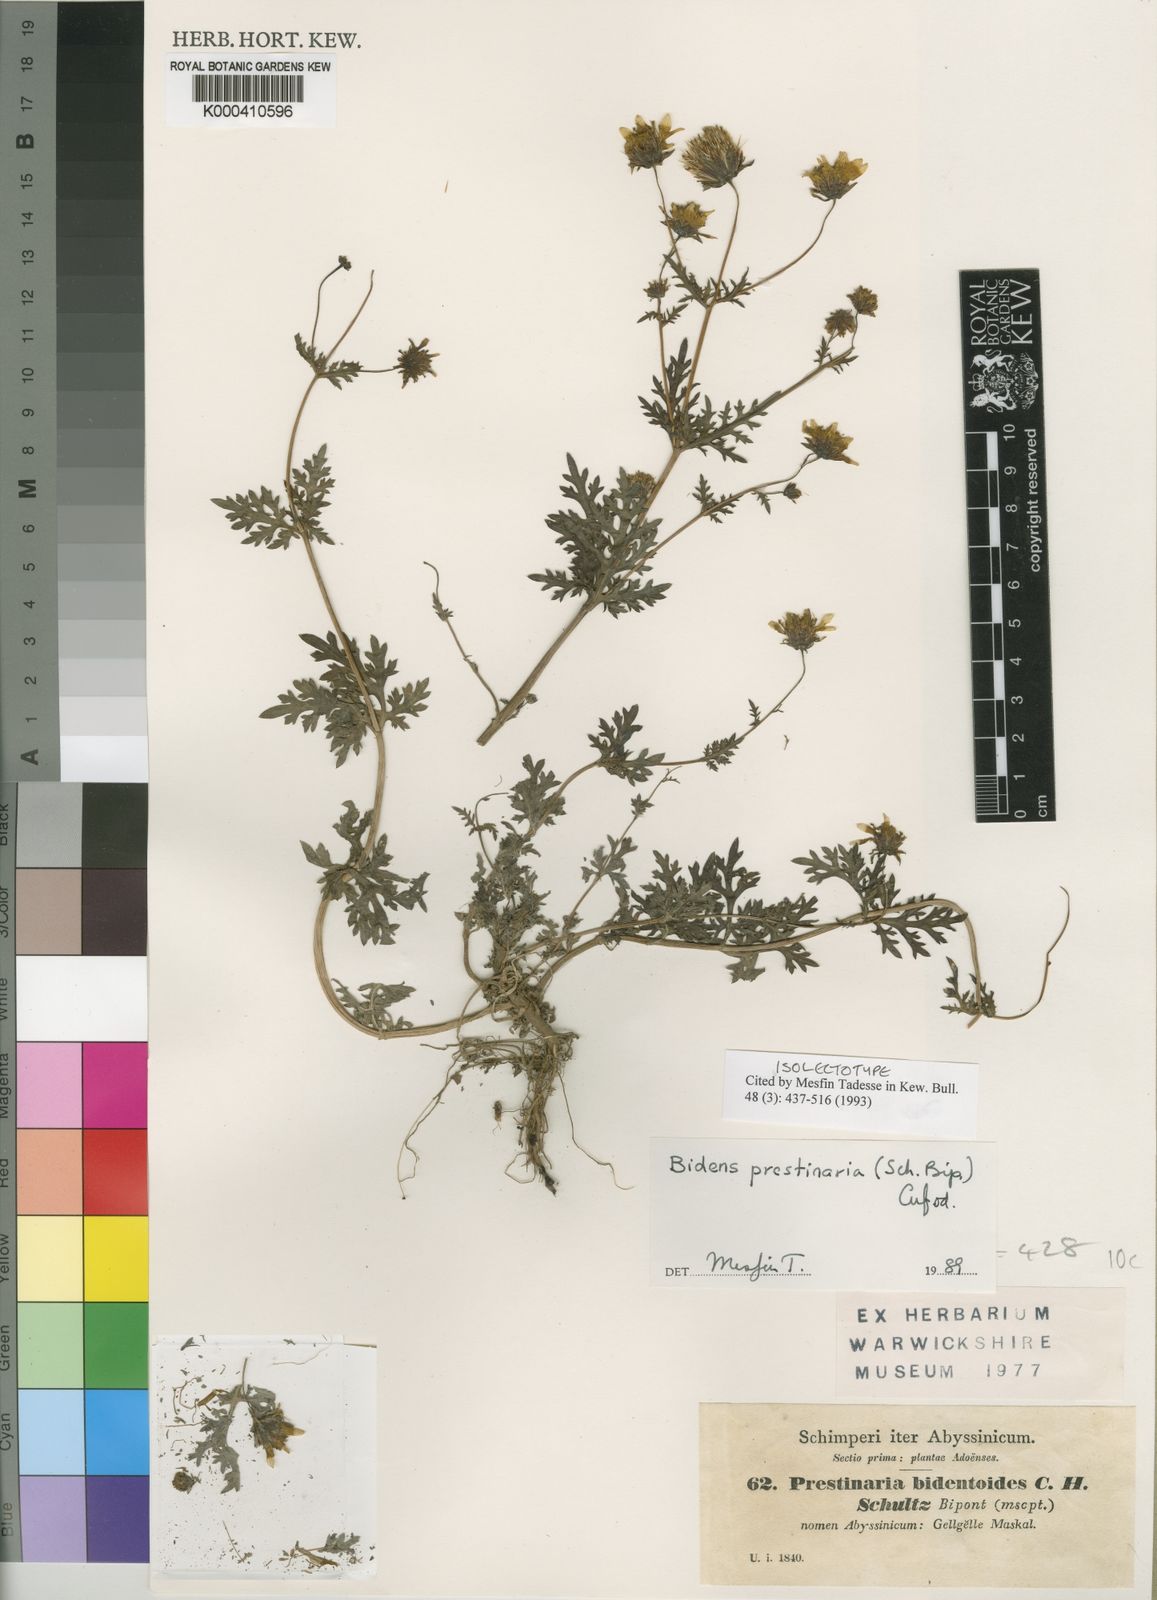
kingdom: Plantae
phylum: Tracheophyta
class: Magnoliopsida
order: Asterales
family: Asteraceae
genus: Bidens
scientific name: Bidens prestinaria
